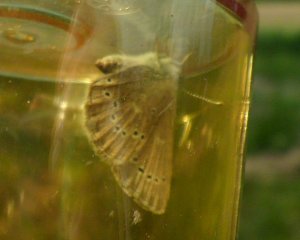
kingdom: Animalia
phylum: Arthropoda
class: Insecta
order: Lepidoptera
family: Lycaenidae
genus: Glaucopsyche
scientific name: Glaucopsyche lygdamus
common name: Silvery Blue
